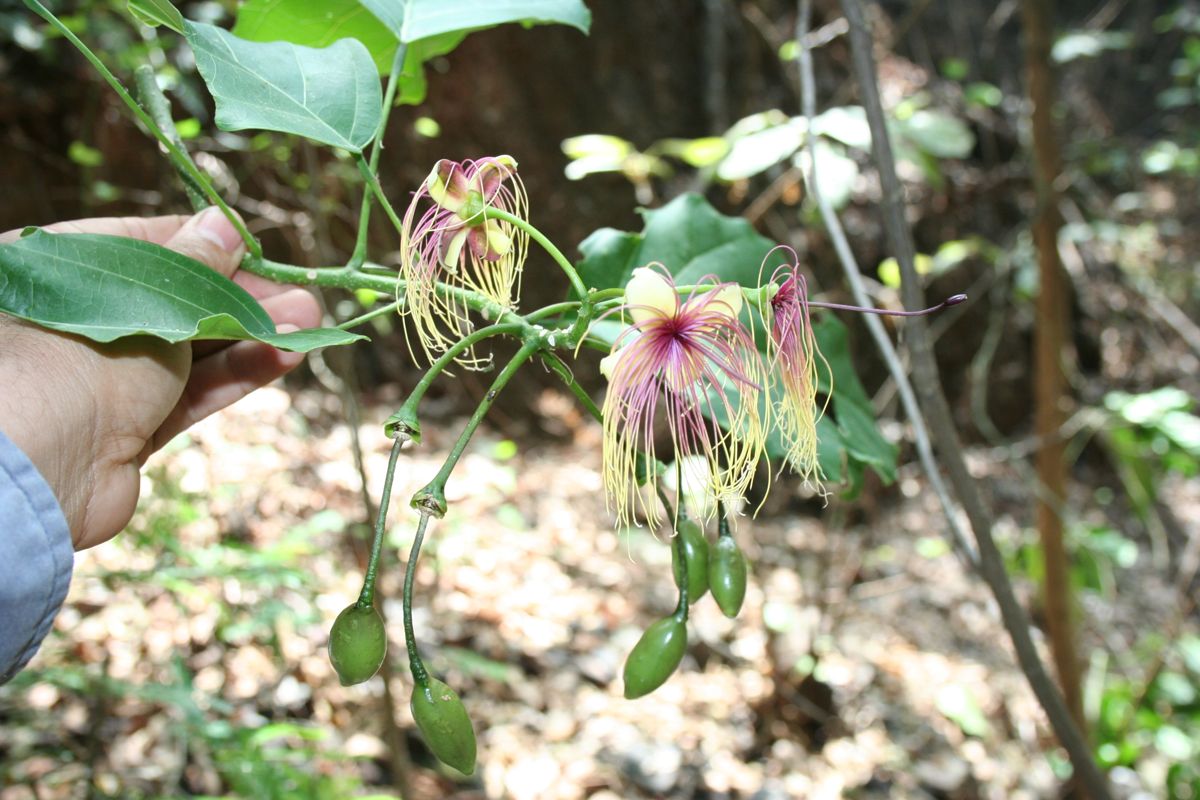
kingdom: Plantae
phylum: Tracheophyta
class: Magnoliopsida
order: Brassicales
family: Capparaceae
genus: Capparidastrum
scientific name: Capparidastrum mollicellum
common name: Caper
